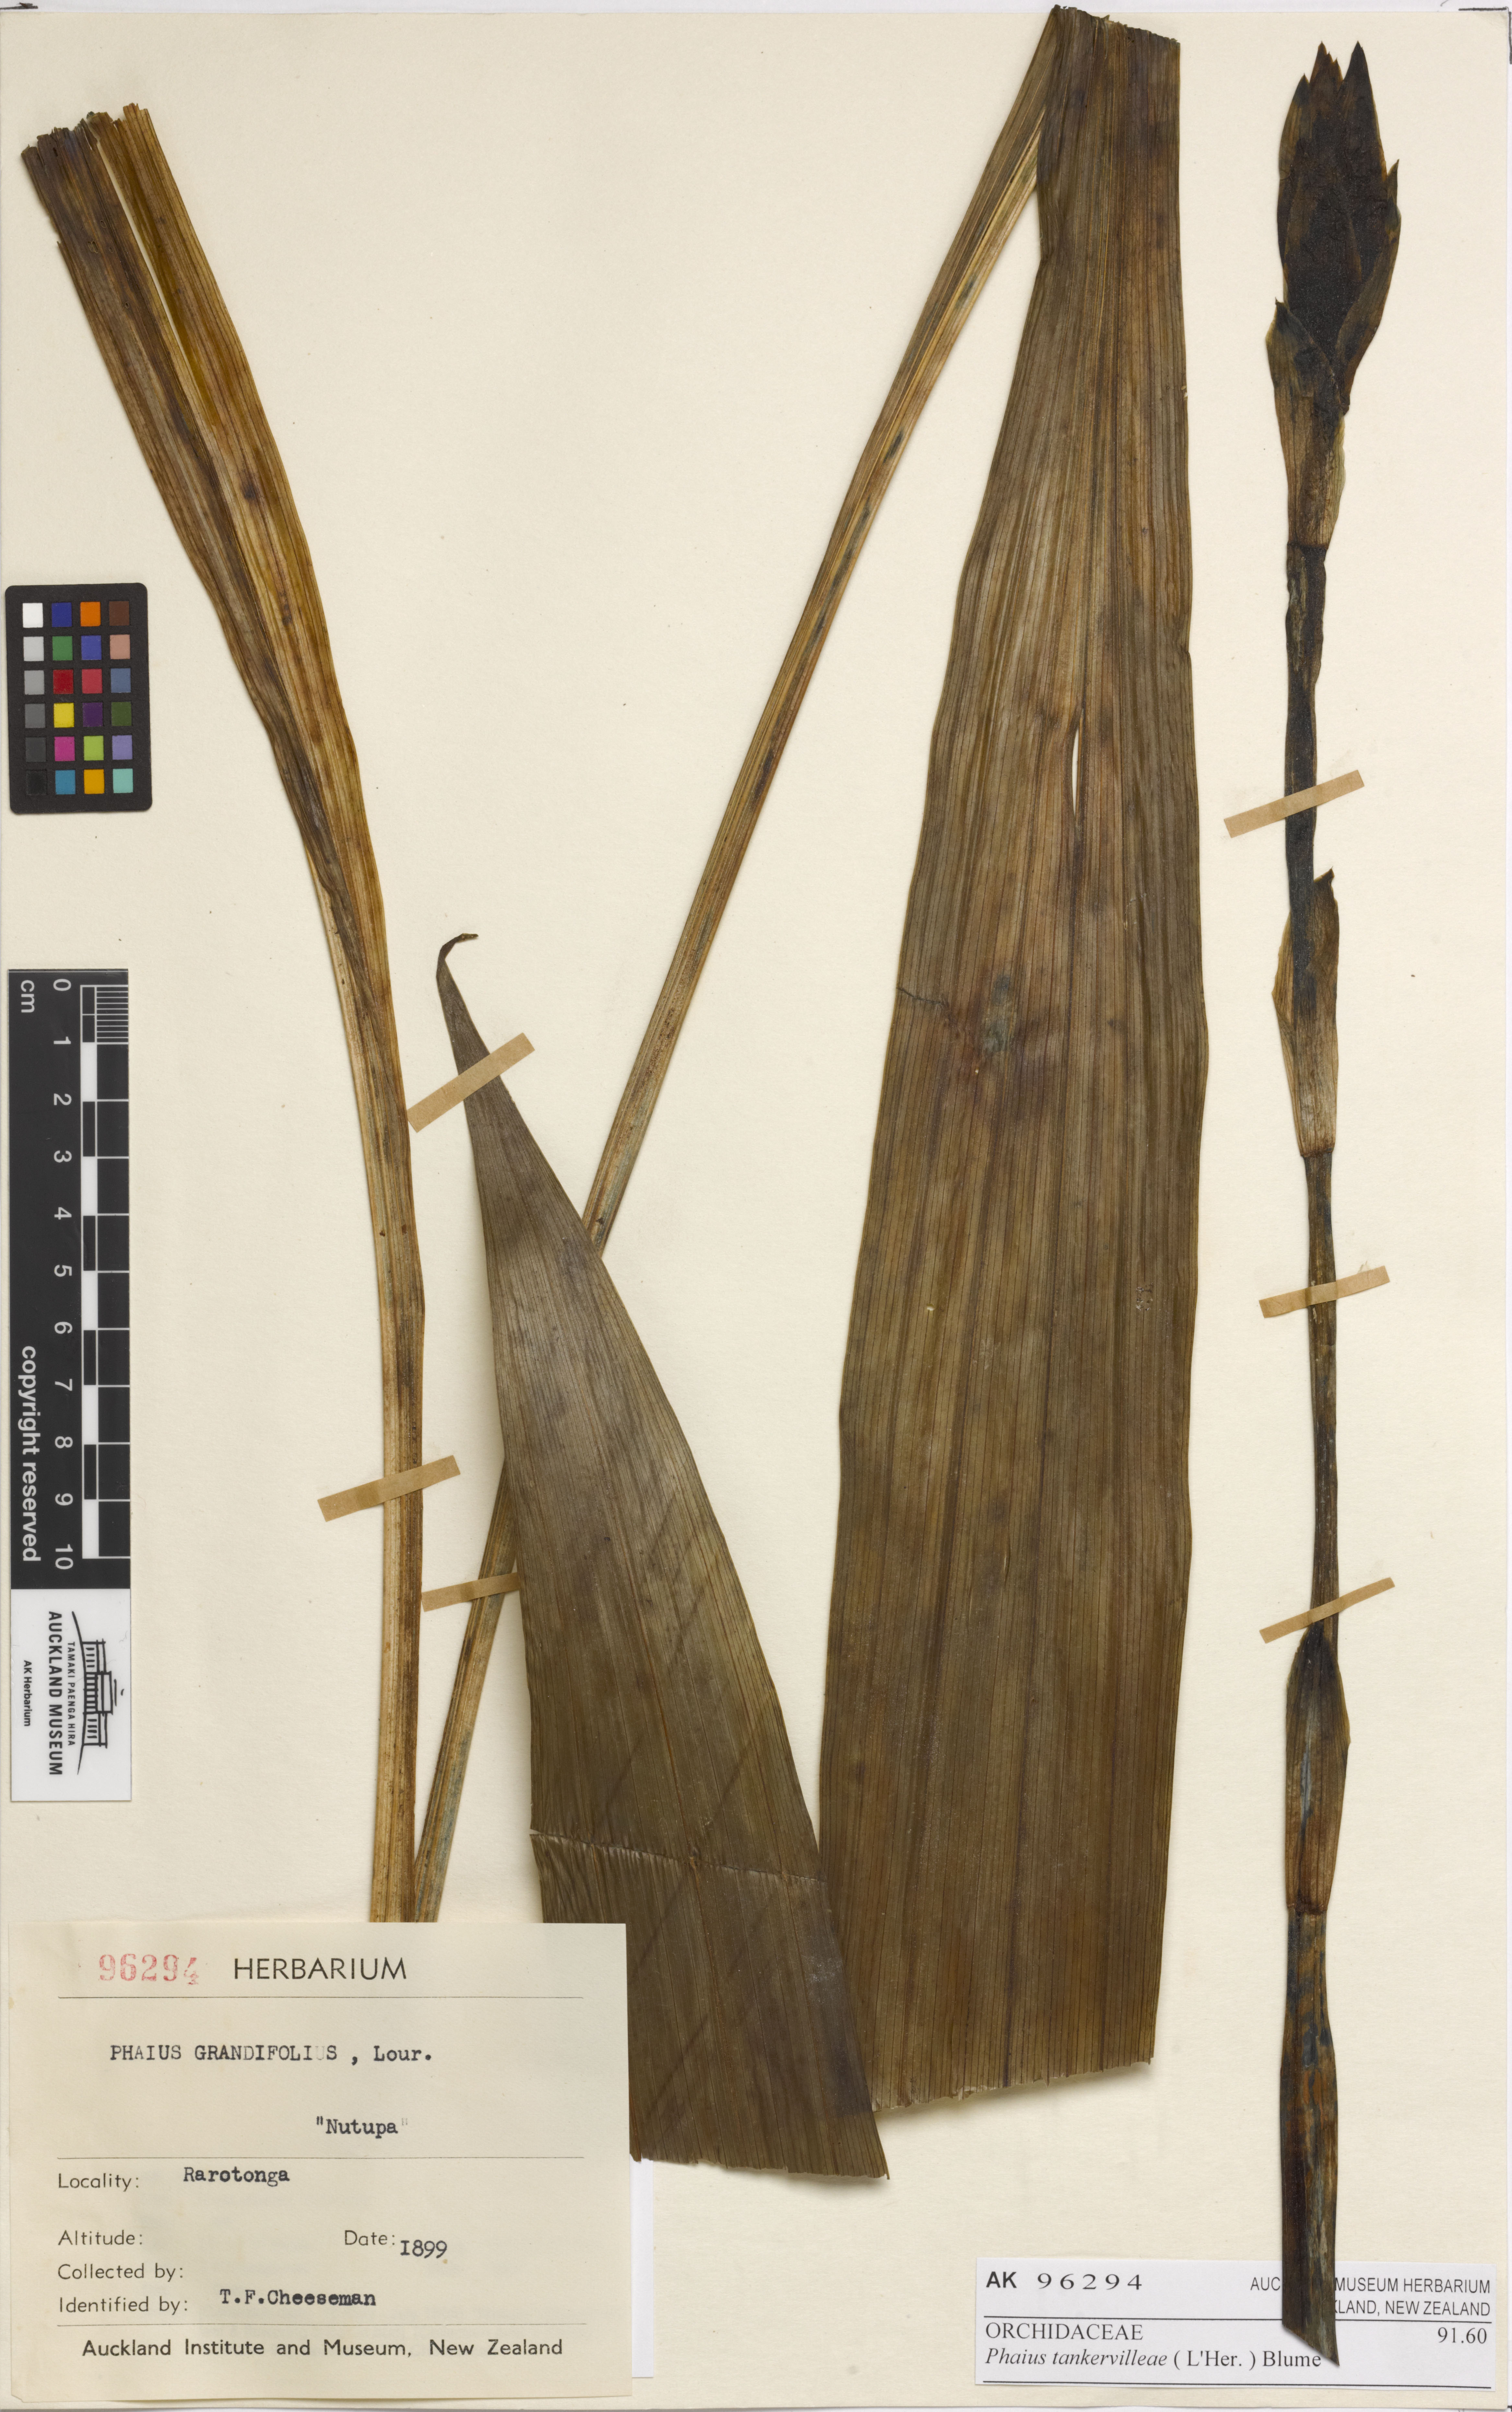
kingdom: Plantae
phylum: Tracheophyta
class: Liliopsida
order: Asparagales
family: Orchidaceae
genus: Calanthe
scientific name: Calanthe tankervilleae
